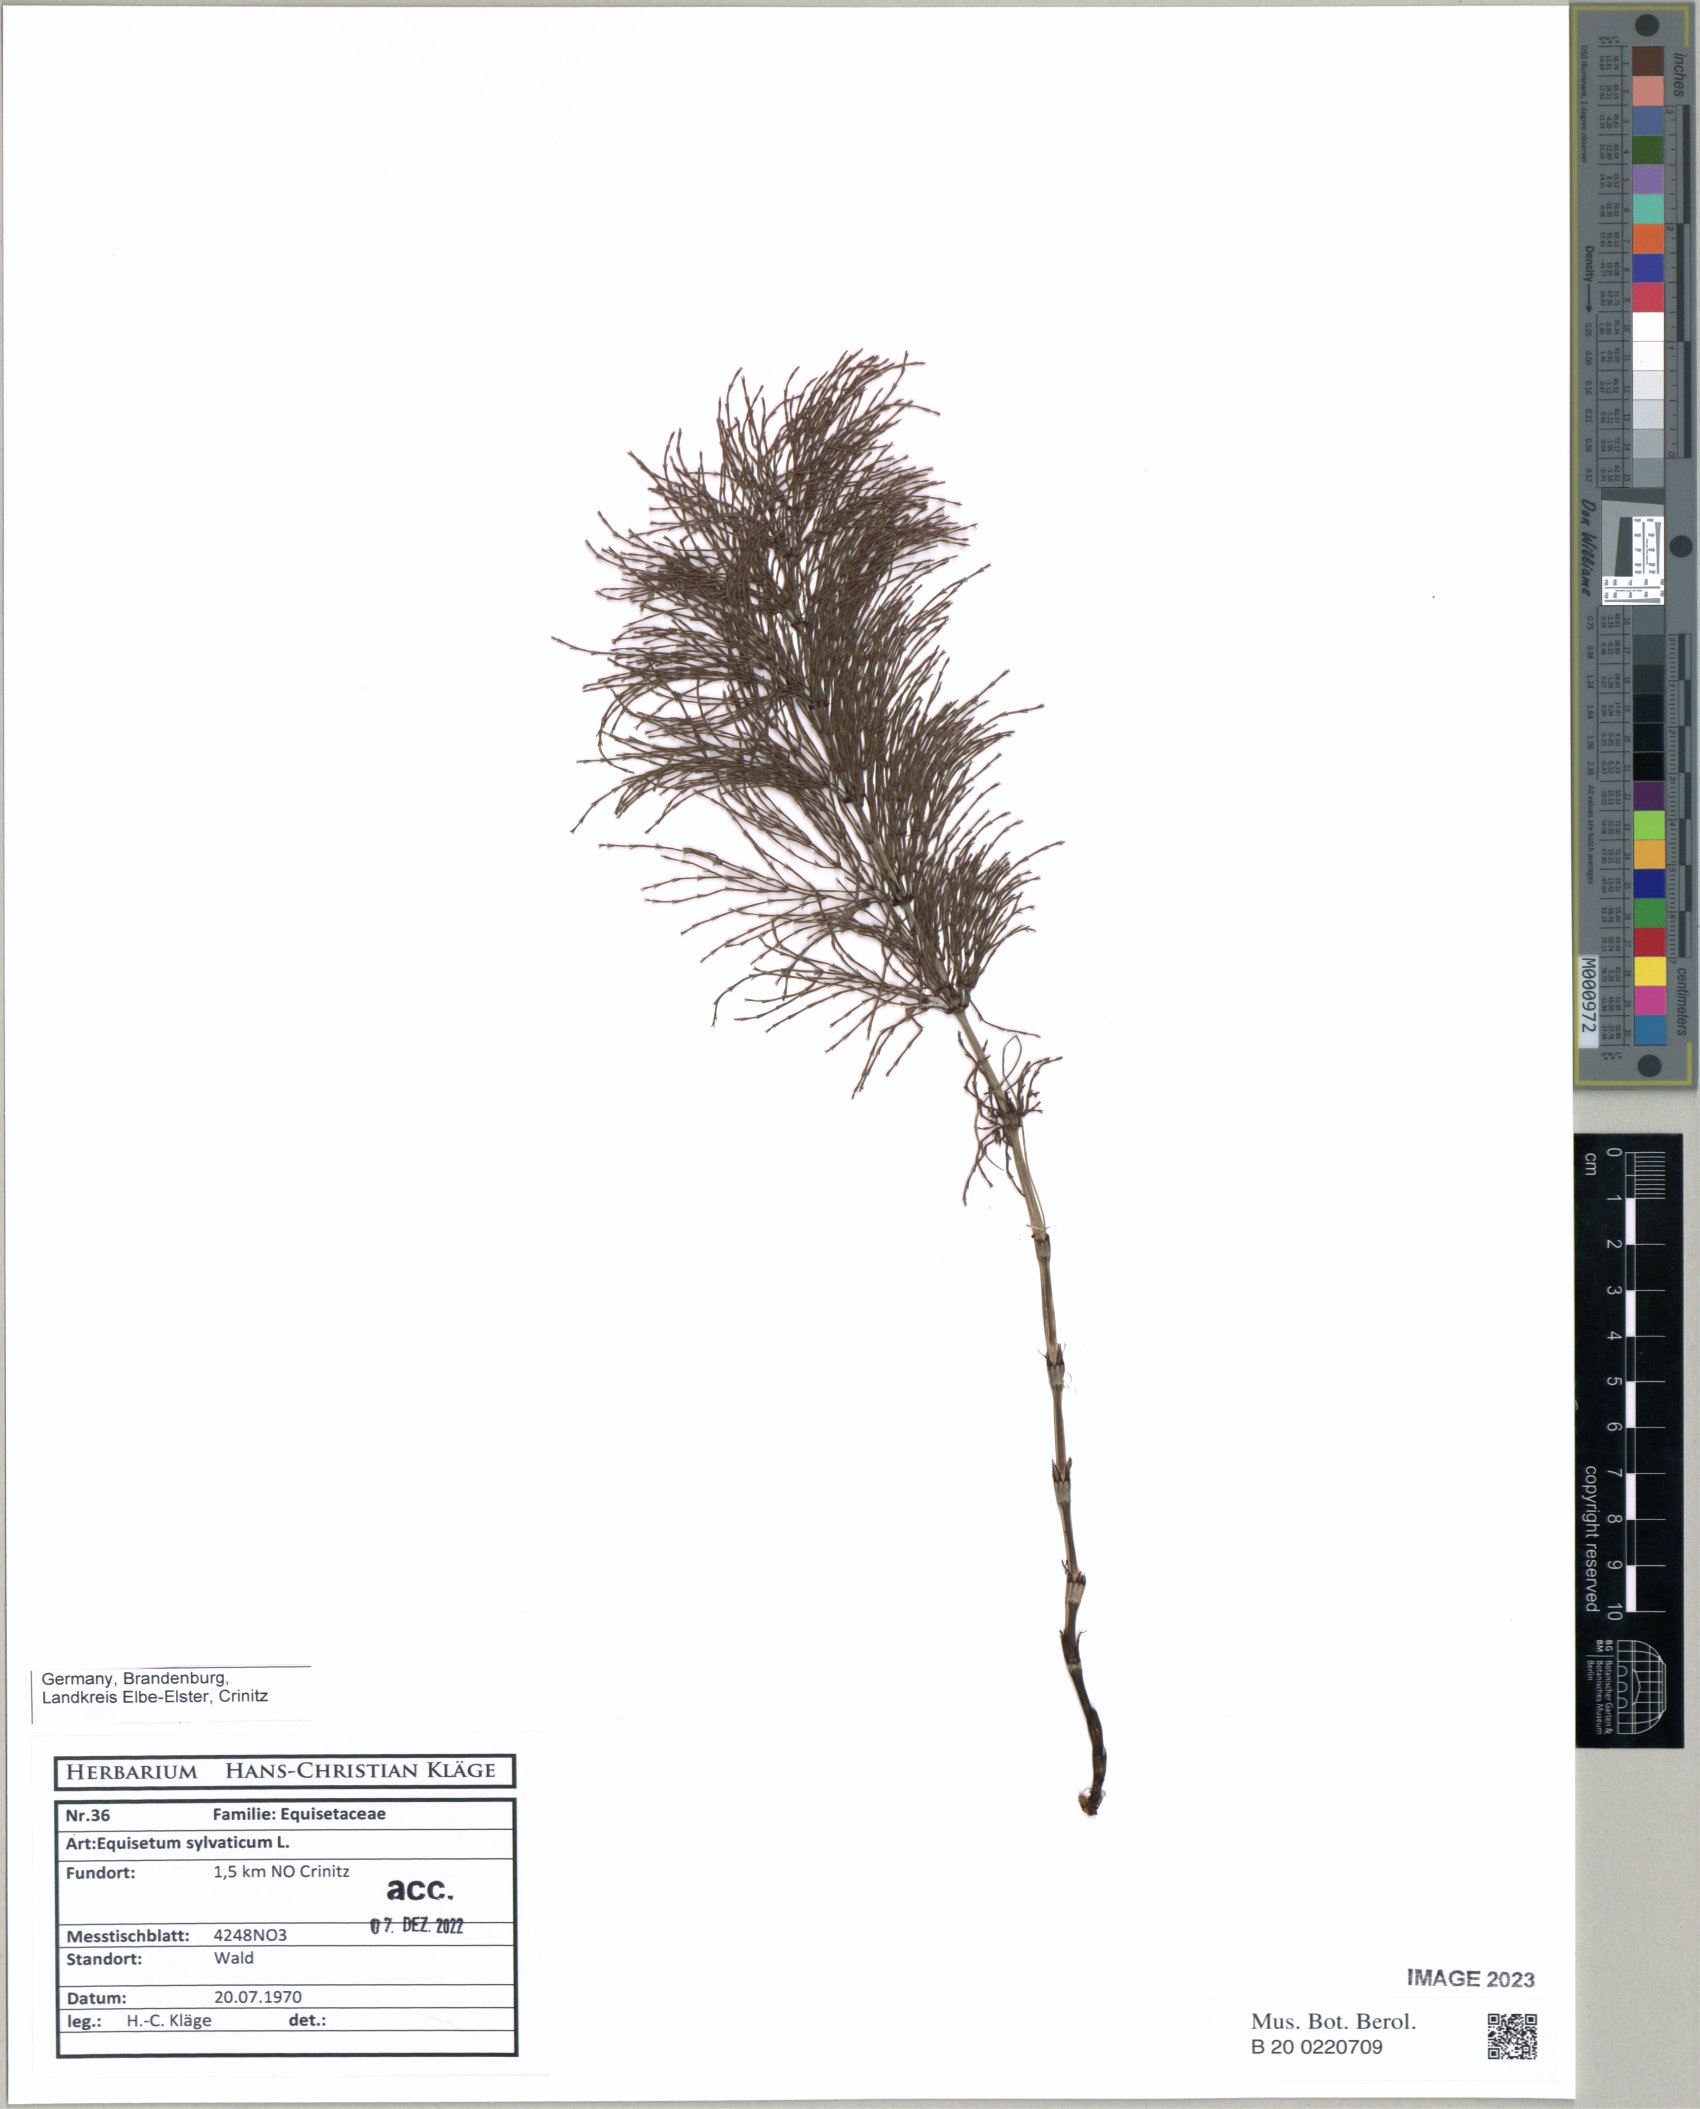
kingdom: Plantae
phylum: Tracheophyta
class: Polypodiopsida
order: Equisetales
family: Equisetaceae
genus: Equisetum
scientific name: Equisetum sylvaticum
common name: Wood horsetail
